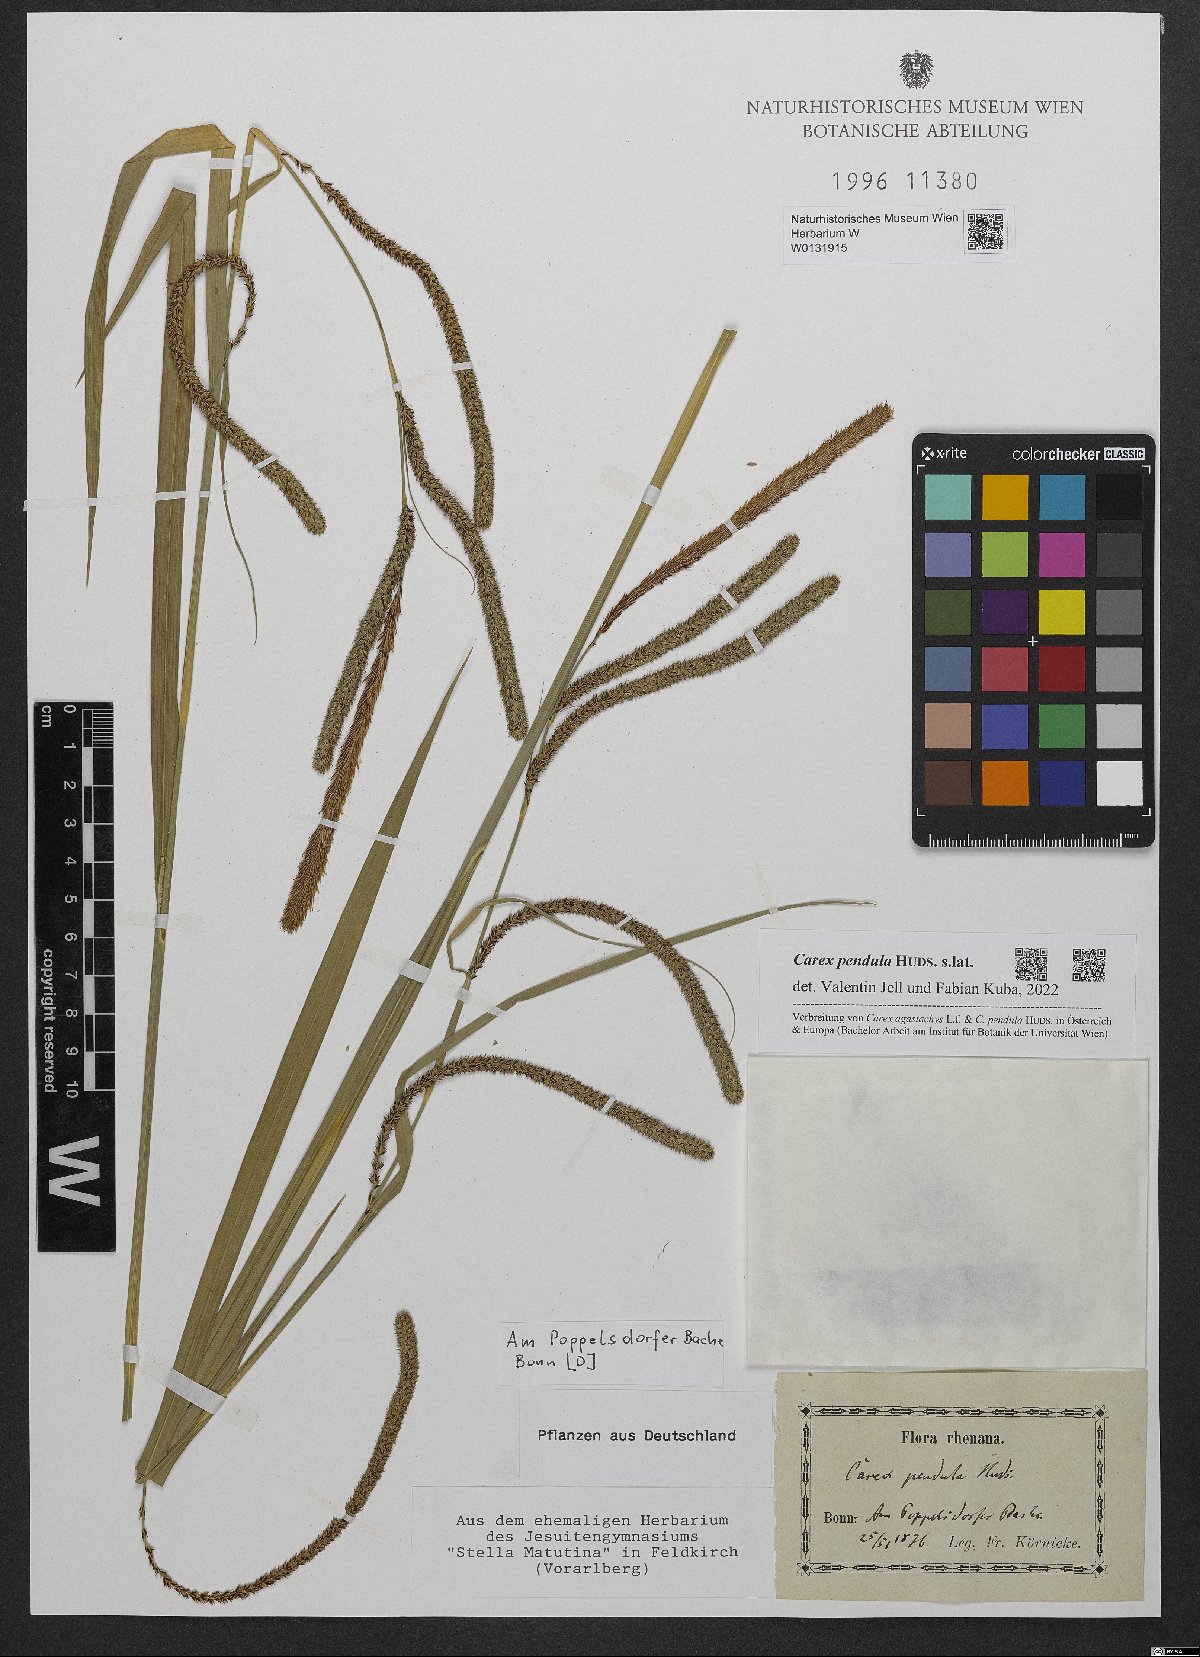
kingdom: Plantae
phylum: Tracheophyta
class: Liliopsida
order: Poales
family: Cyperaceae
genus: Carex
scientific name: Carex pendula
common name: Pendulous sedge
